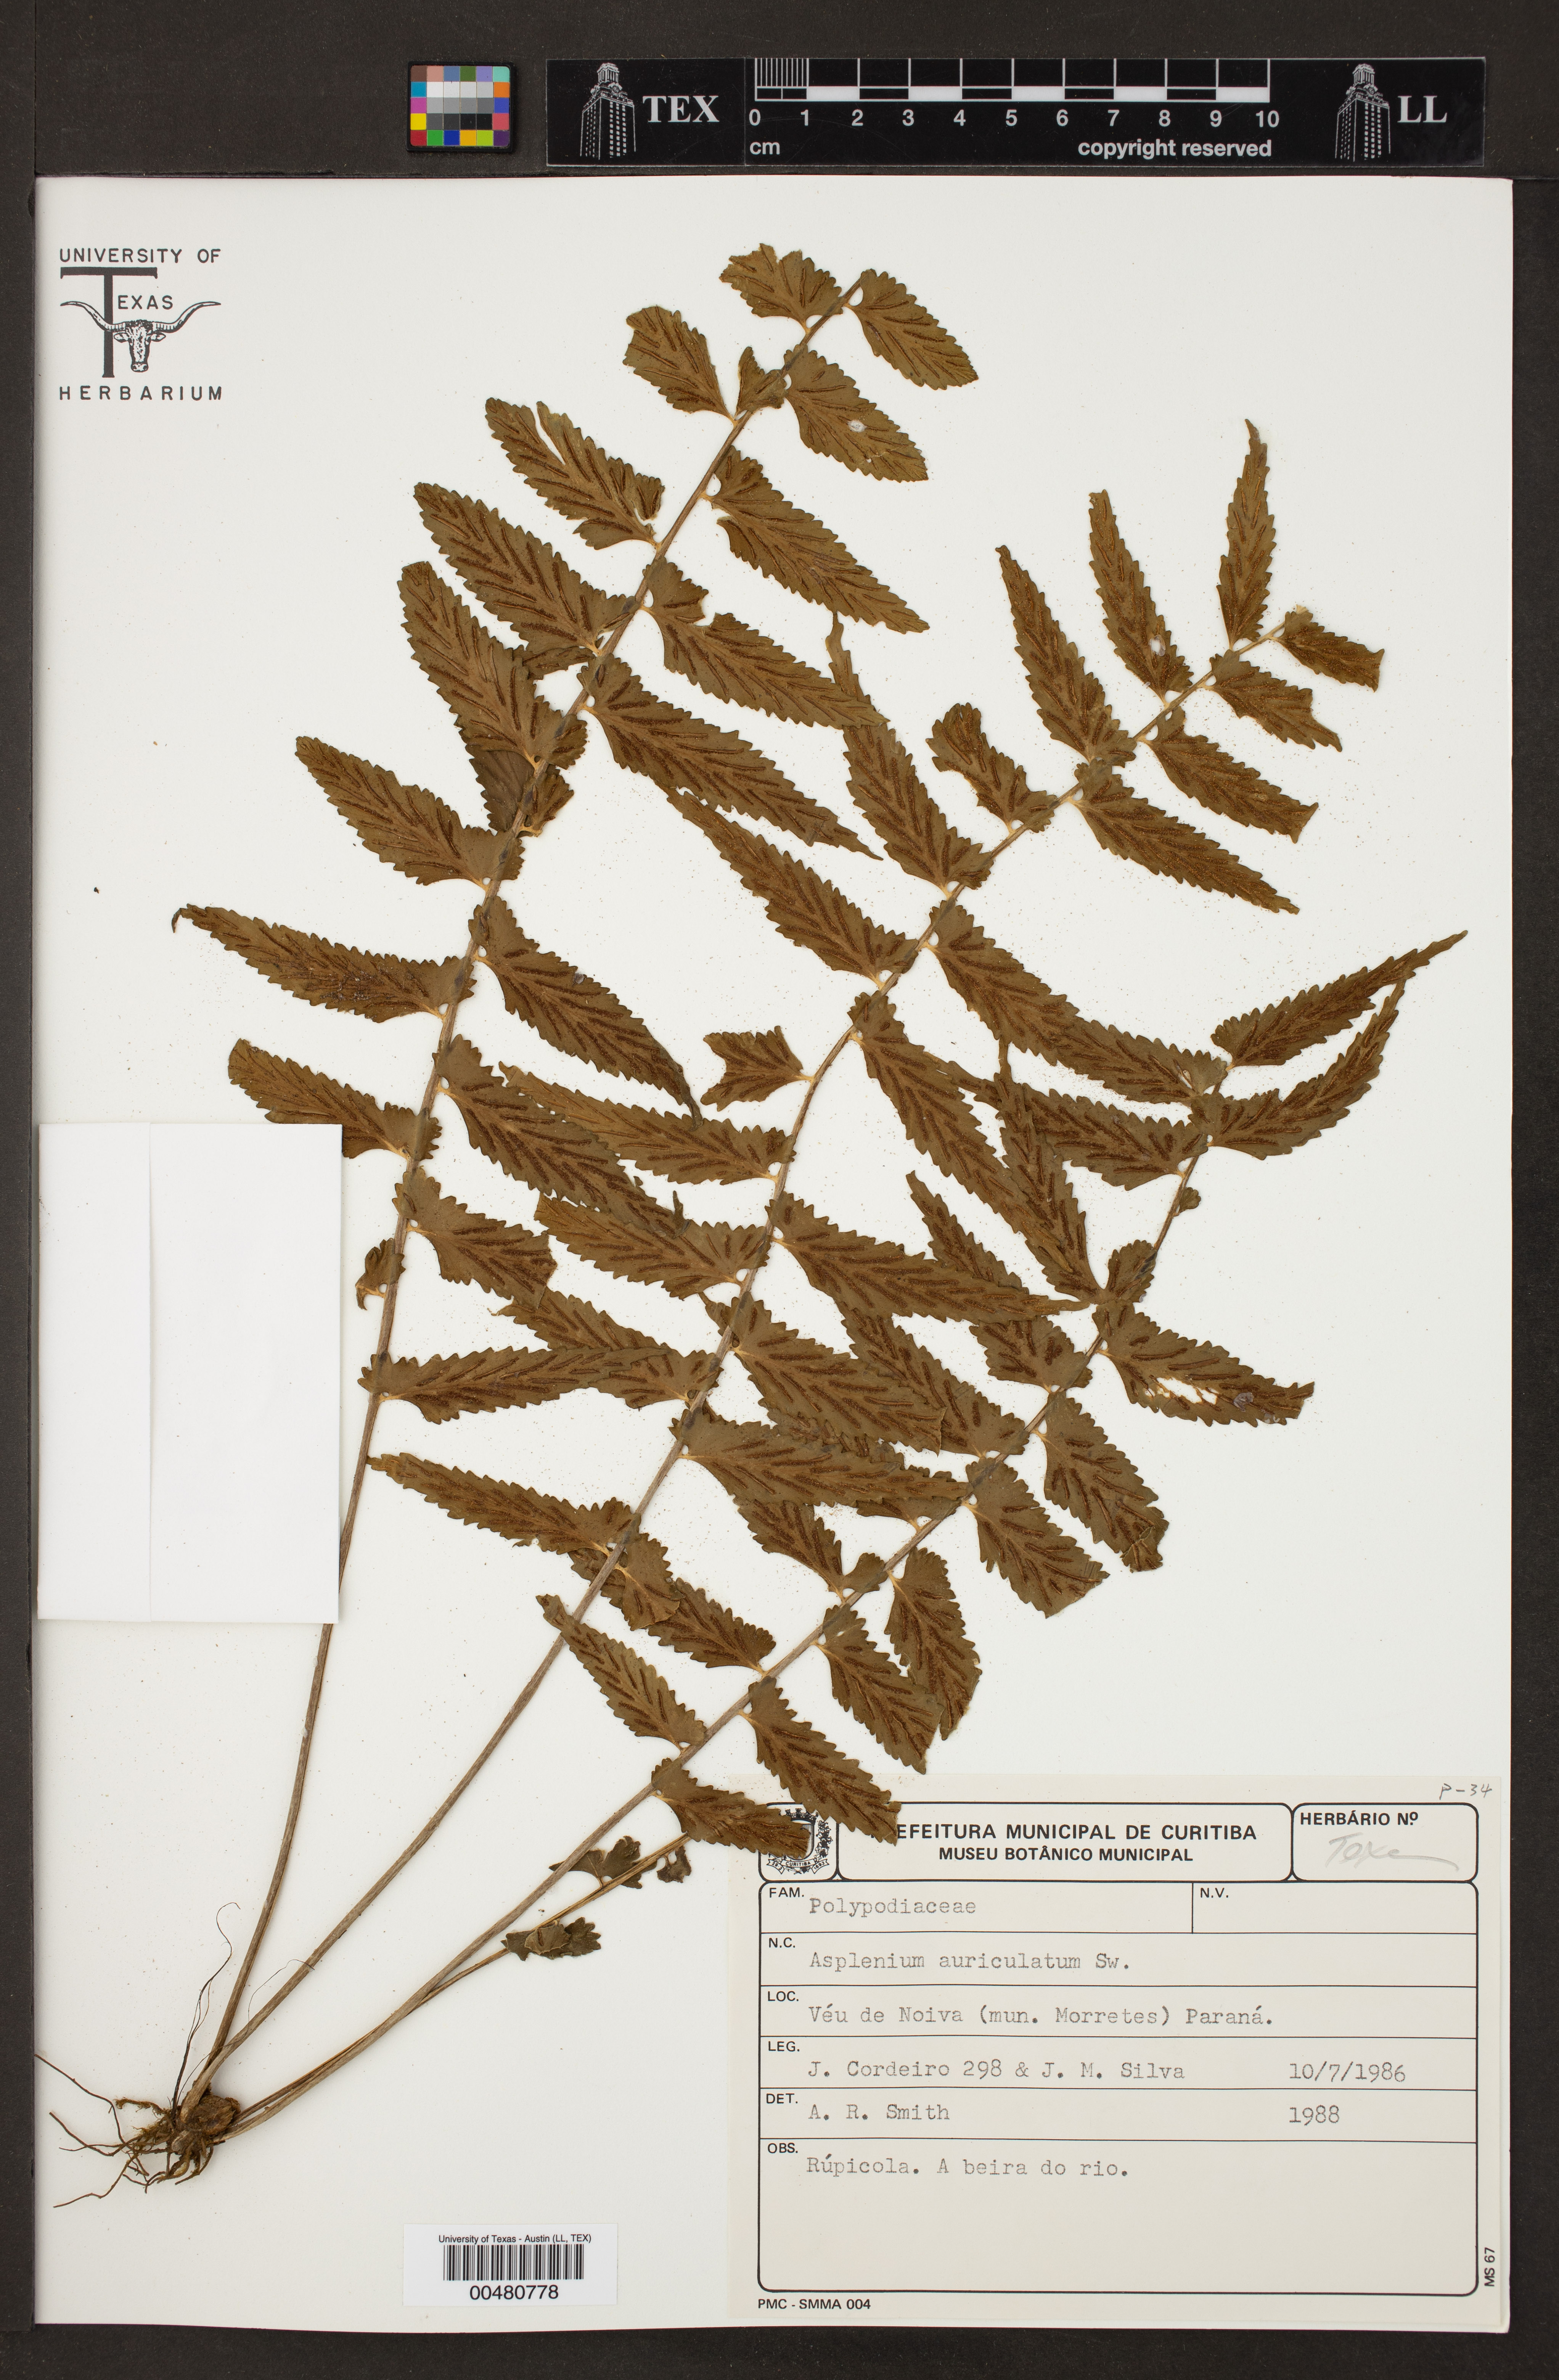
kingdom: Plantae
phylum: Tracheophyta
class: Polypodiopsida
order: Polypodiales
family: Aspleniaceae
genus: Asplenium
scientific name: Asplenium auriculatum
